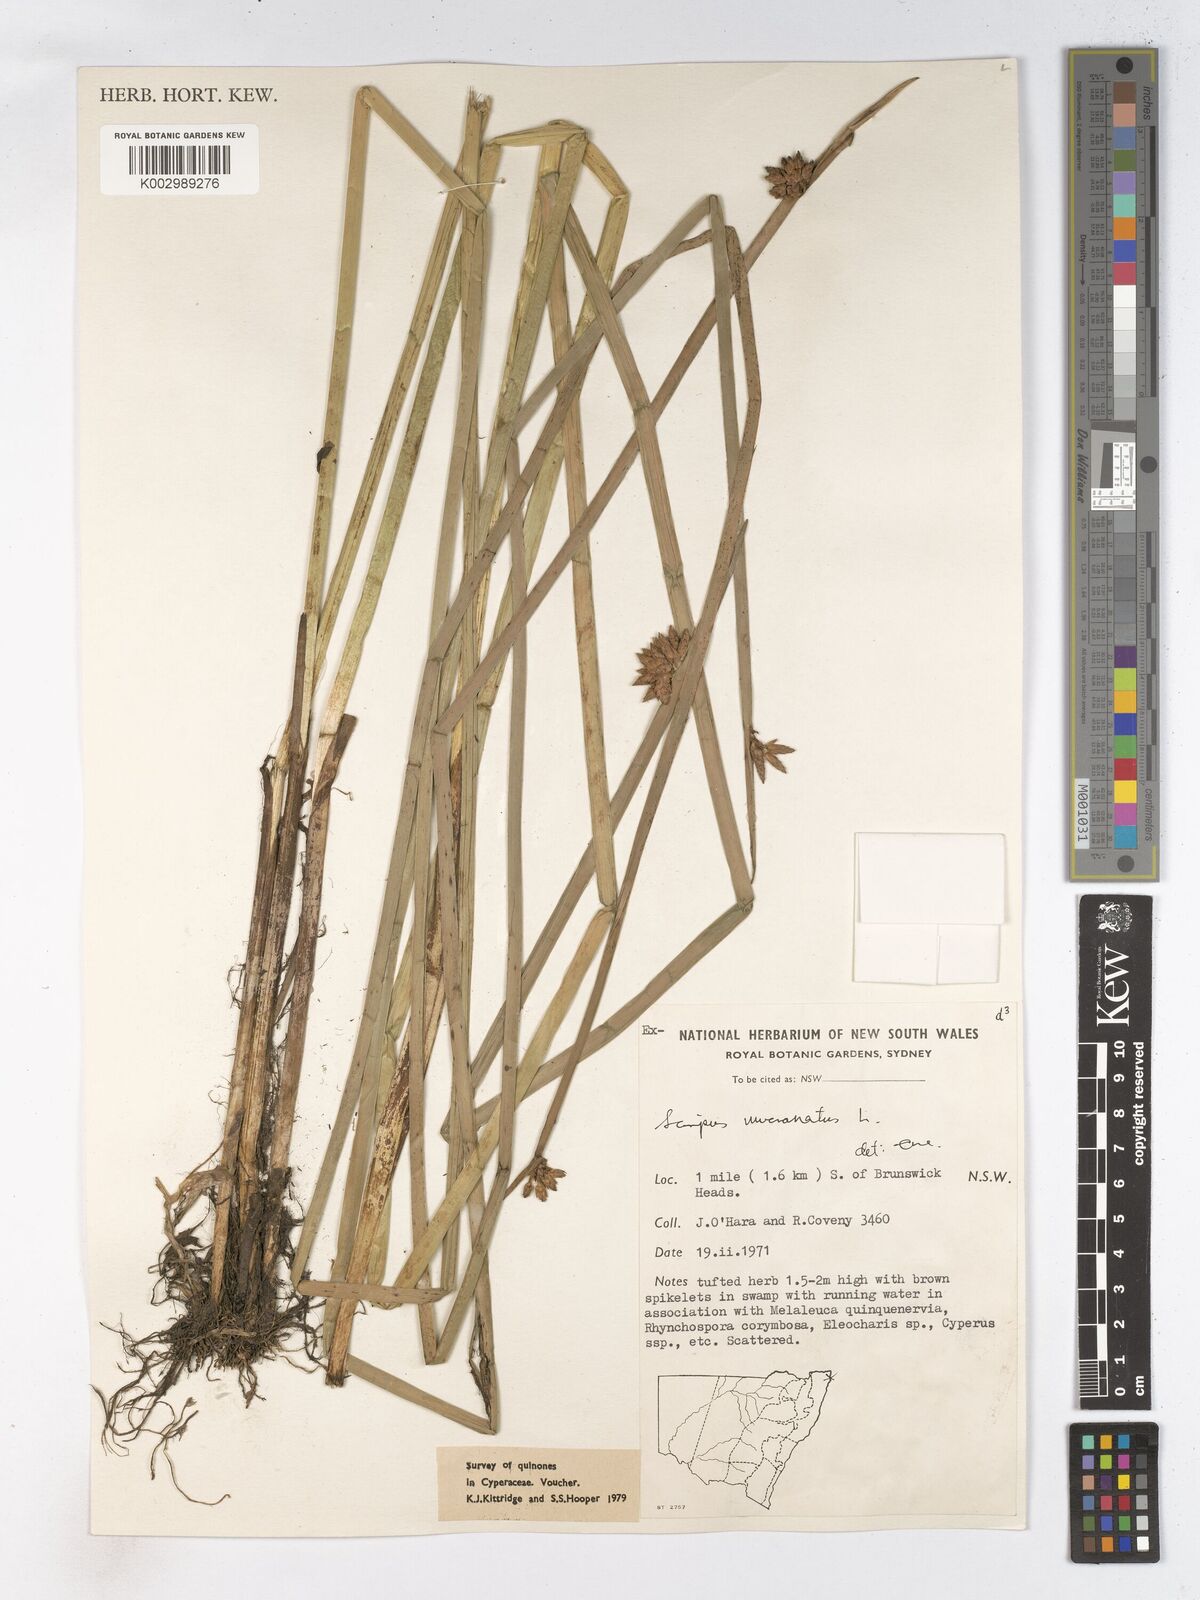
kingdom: Plantae
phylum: Tracheophyta
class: Liliopsida
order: Poales
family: Cyperaceae
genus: Schoenoplectiella
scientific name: Schoenoplectiella mucronata
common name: Bog bulrush
